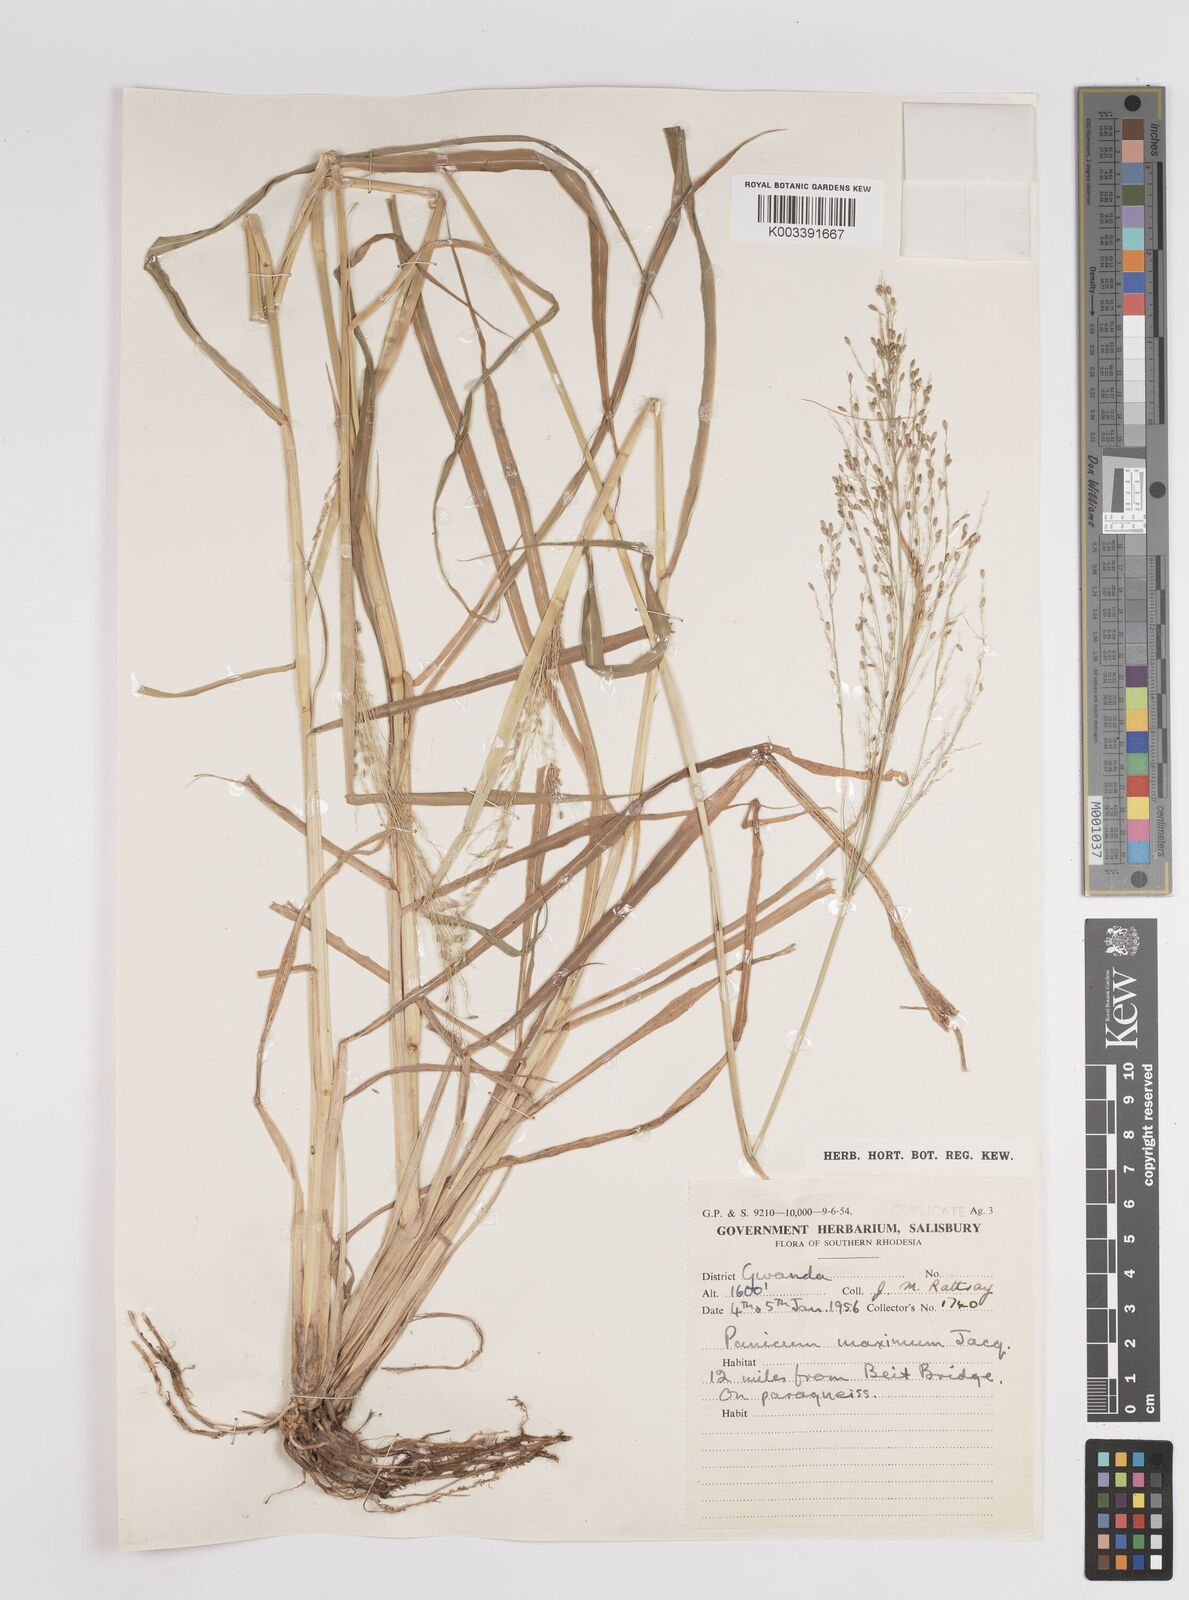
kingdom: Plantae
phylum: Tracheophyta
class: Liliopsida
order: Poales
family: Poaceae
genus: Megathyrsus
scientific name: Megathyrsus maximus
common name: Guineagrass
